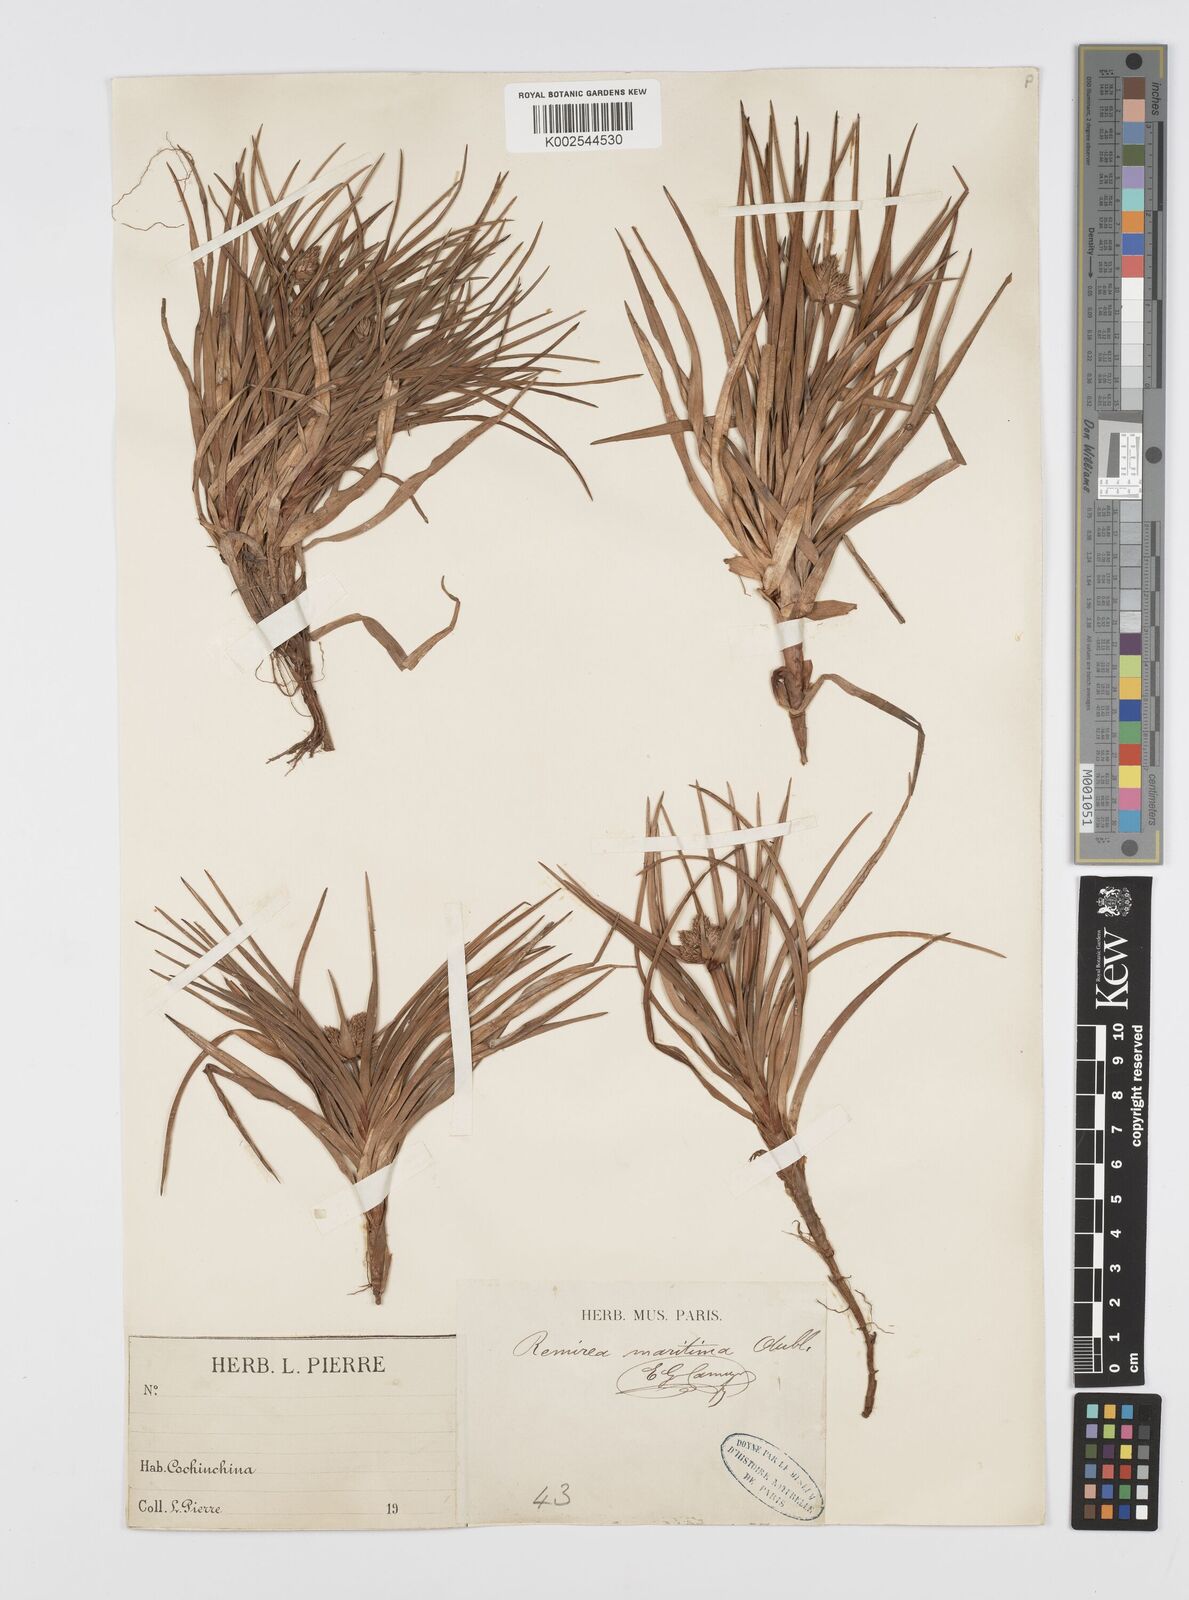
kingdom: Plantae
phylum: Tracheophyta
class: Liliopsida
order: Poales
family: Cyperaceae
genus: Cyperus
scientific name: Cyperus
